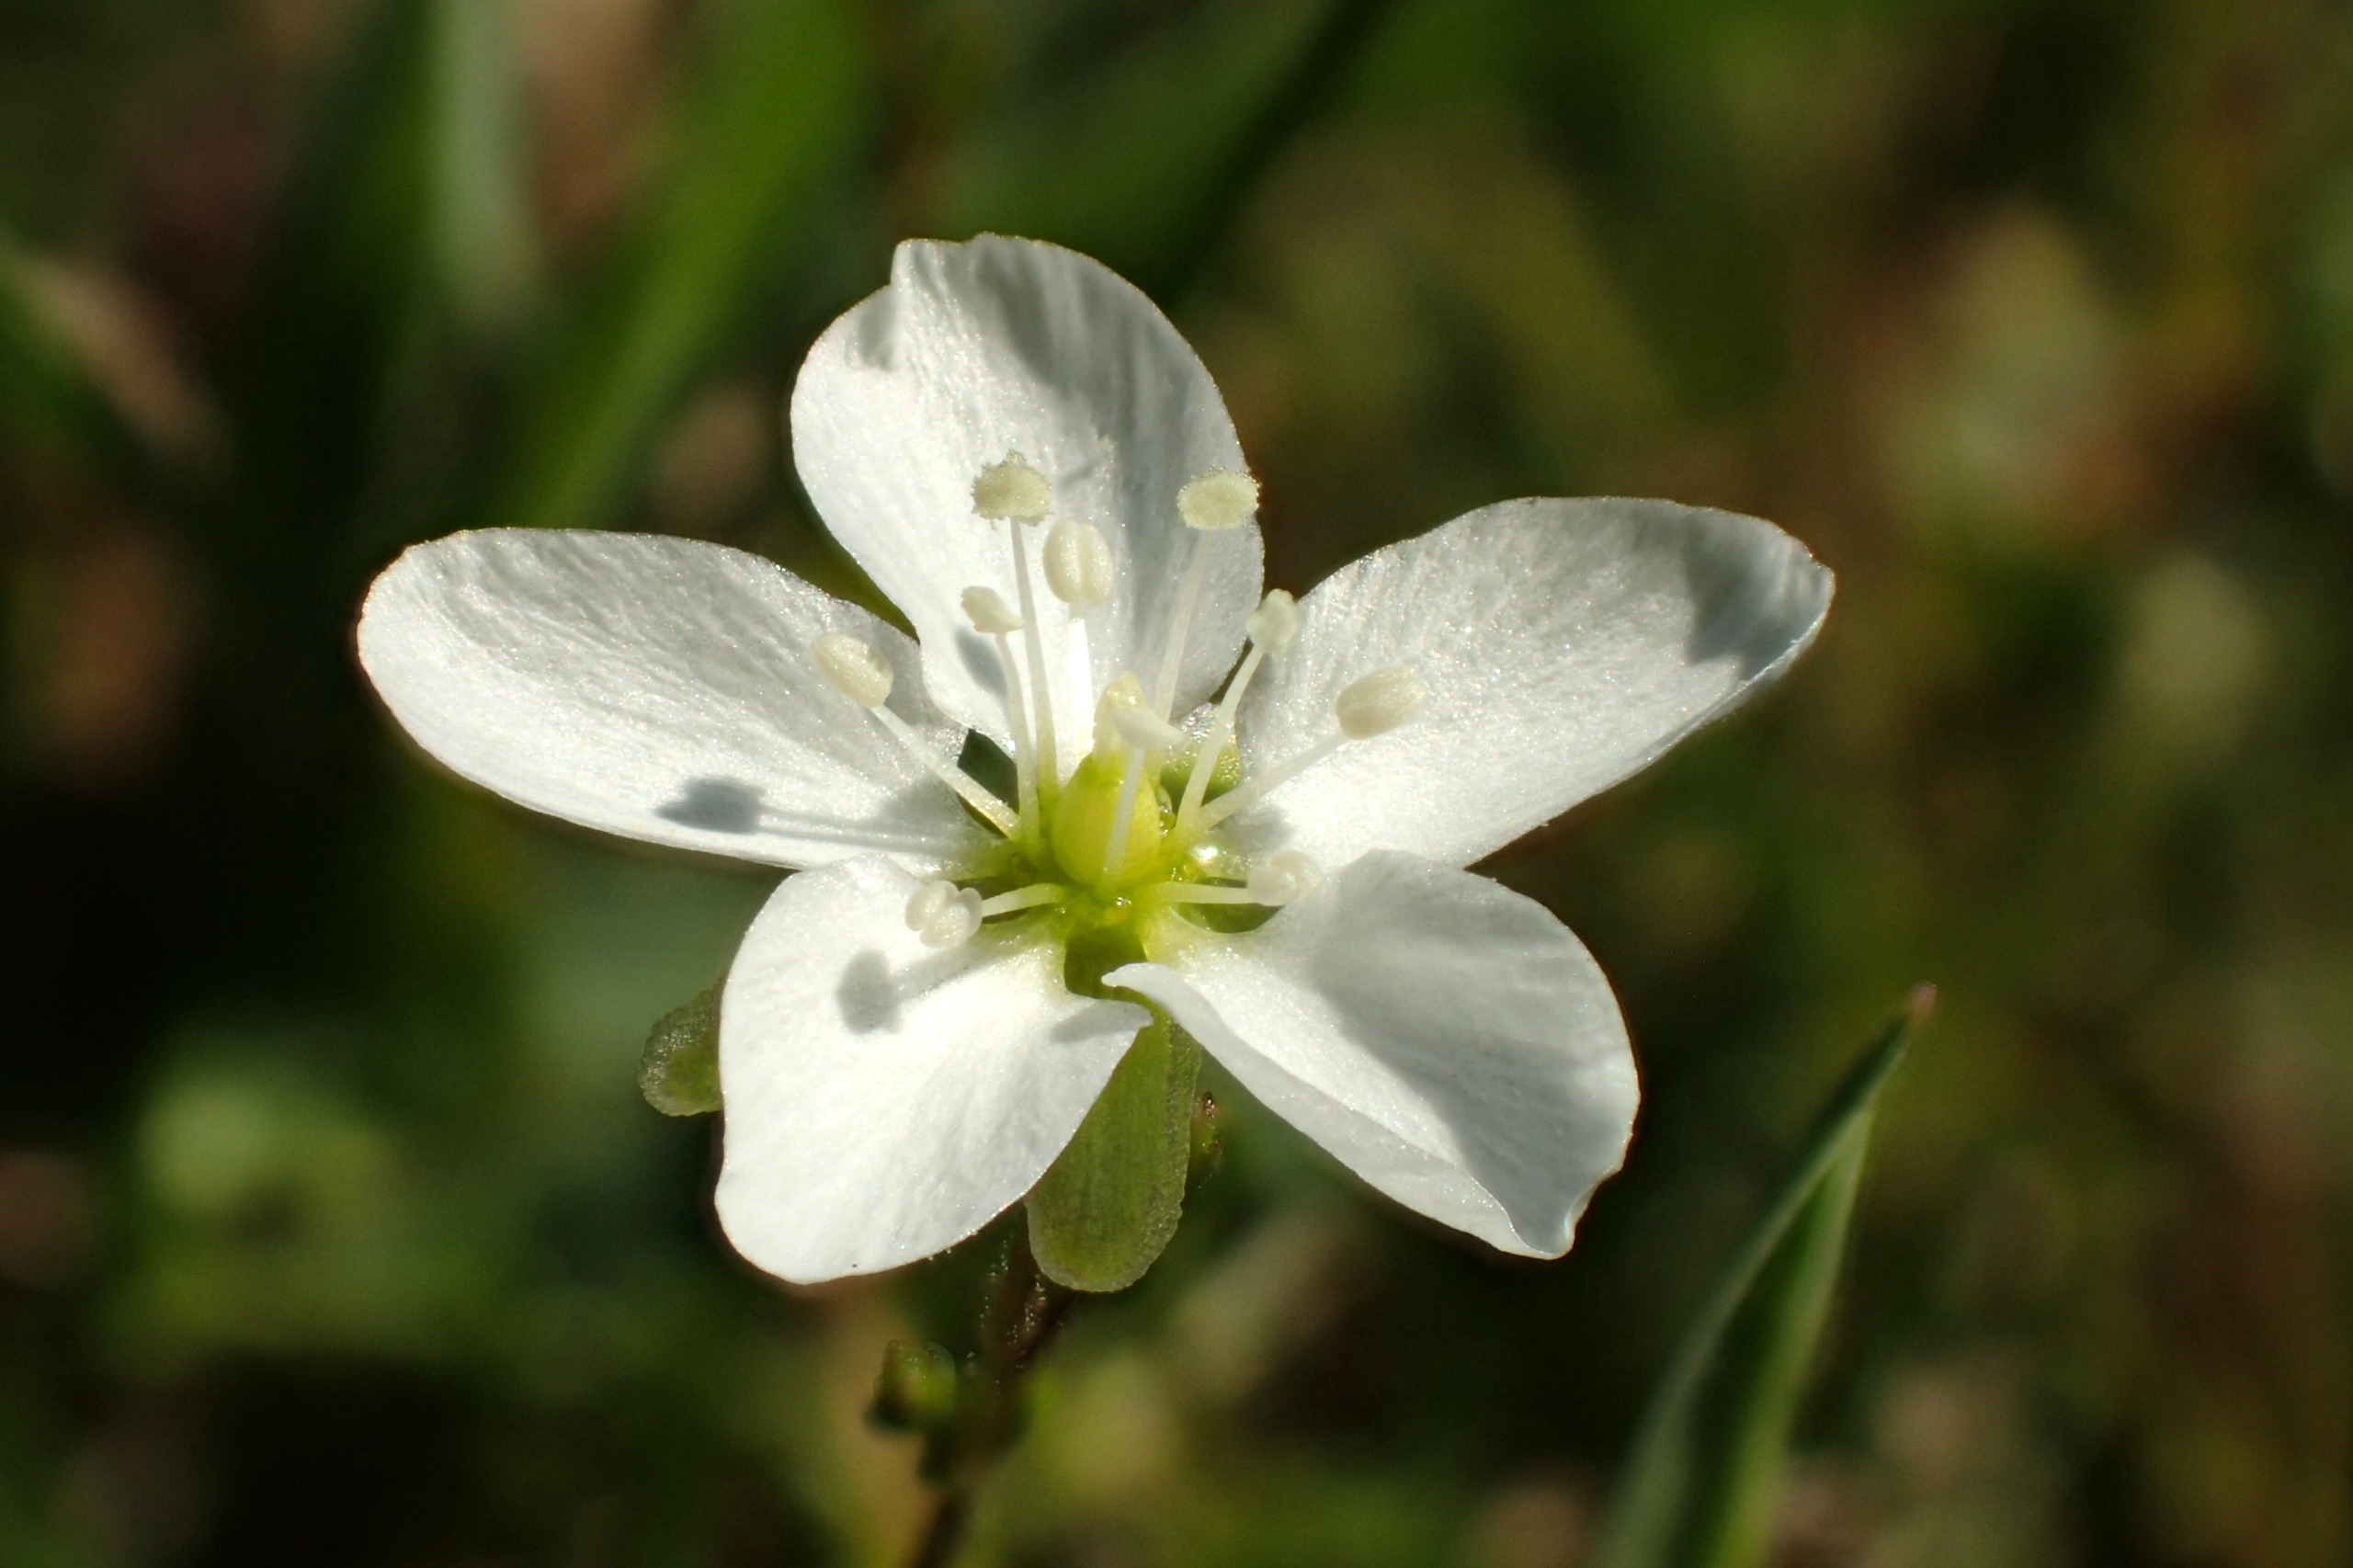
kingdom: Plantae
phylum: Tracheophyta
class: Magnoliopsida
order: Caryophyllales
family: Caryophyllaceae
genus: Sagina
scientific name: Sagina nodosa
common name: Knude-firling
